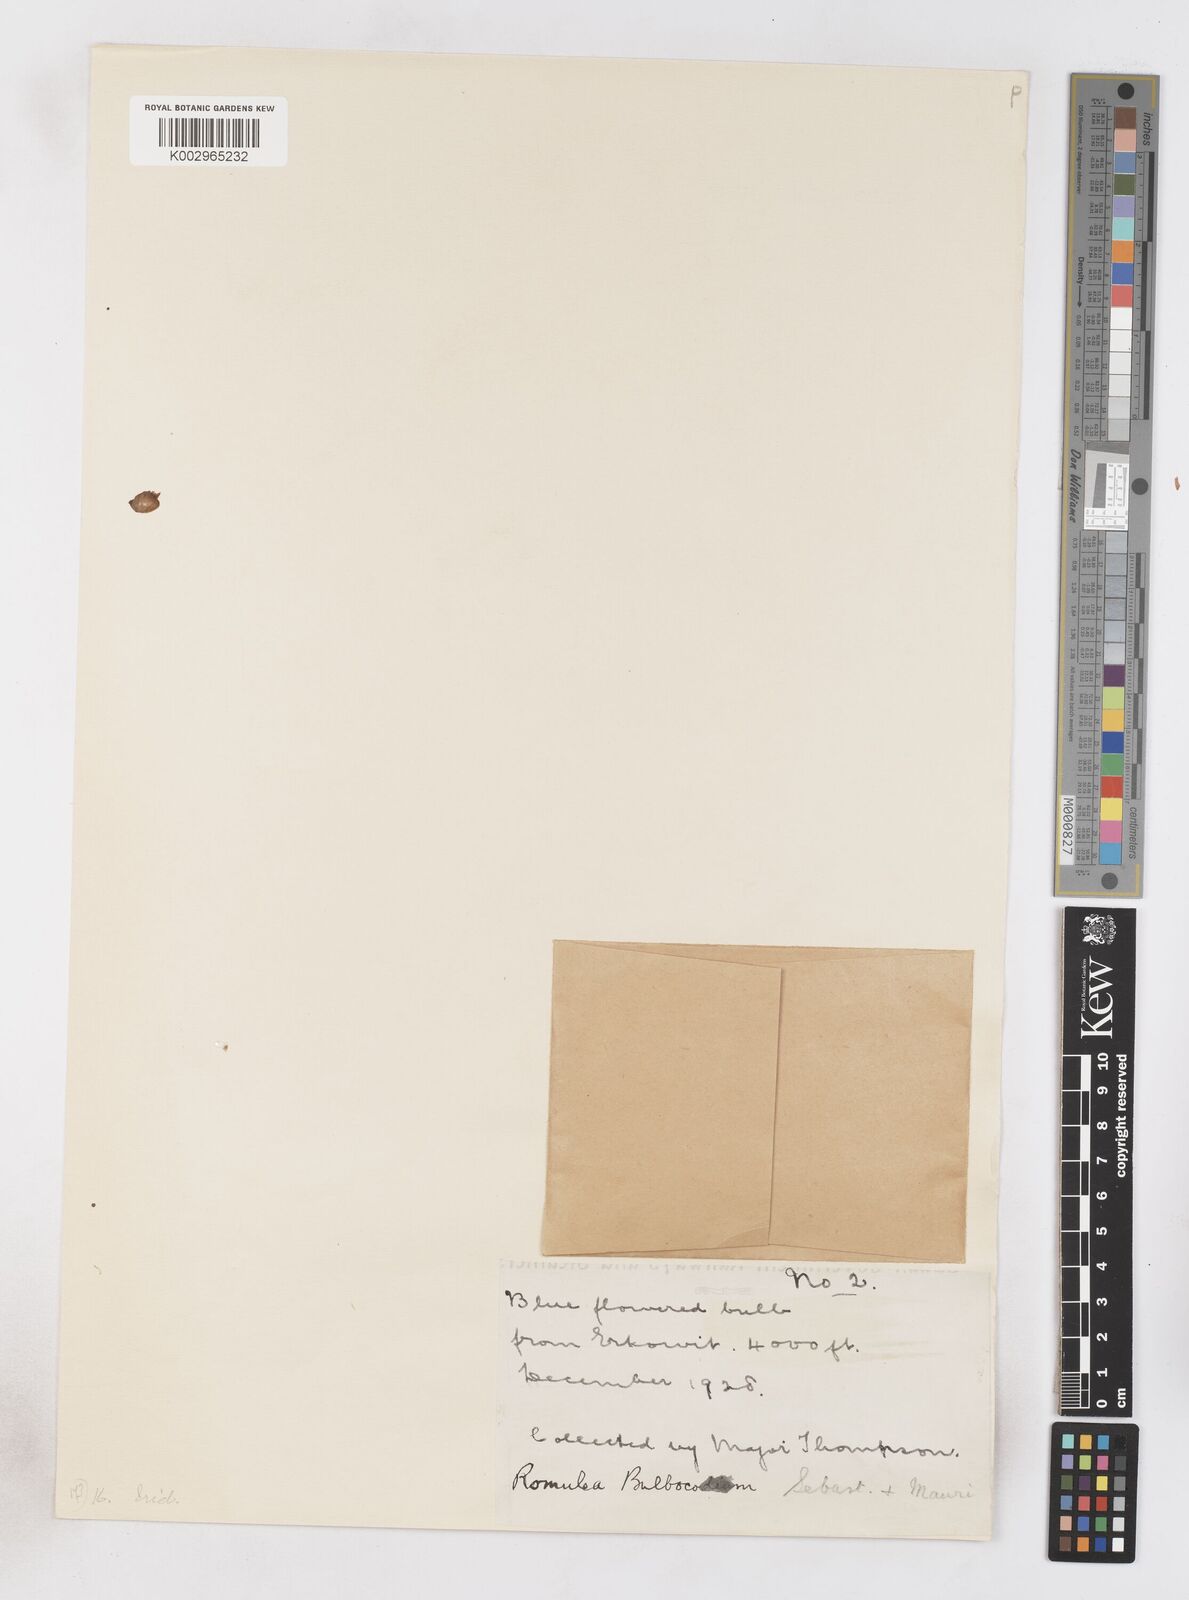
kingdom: Plantae
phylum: Tracheophyta
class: Liliopsida
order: Asparagales
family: Iridaceae
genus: Romulea
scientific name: Romulea fischeri
